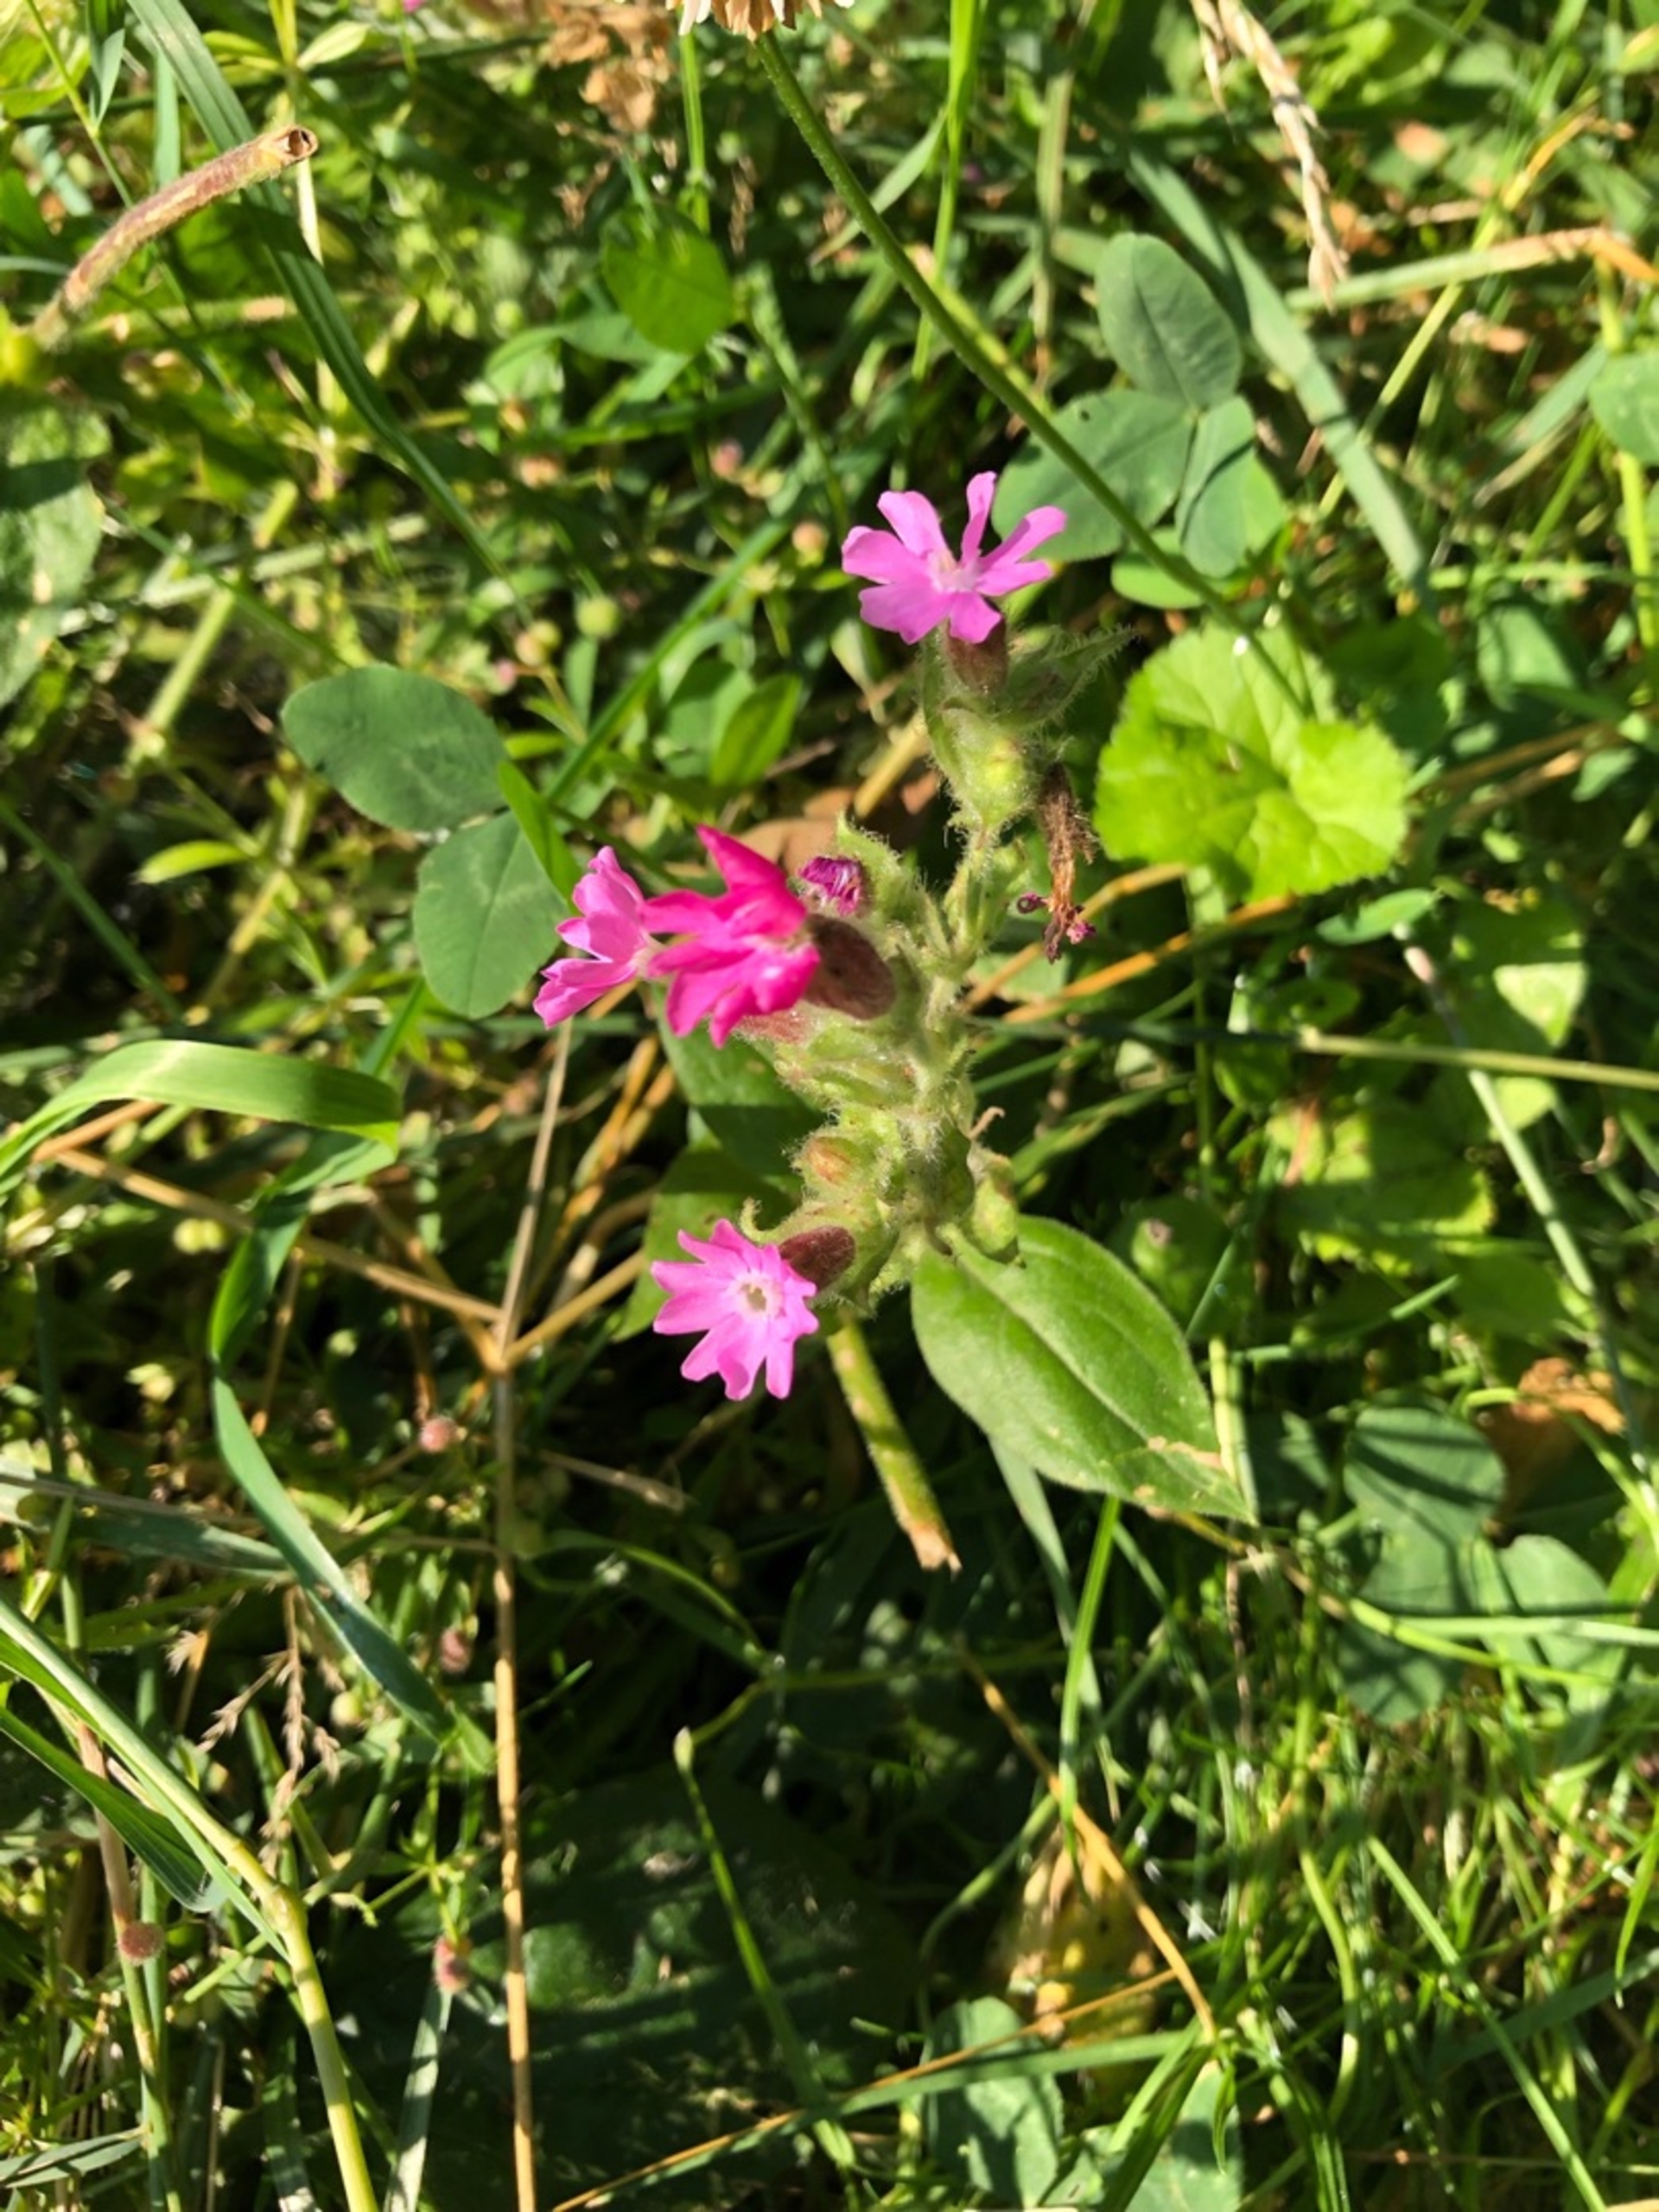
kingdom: Plantae
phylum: Tracheophyta
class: Magnoliopsida
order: Caryophyllales
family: Caryophyllaceae
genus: Silene
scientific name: Silene dioica
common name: Dagpragtstjerne
